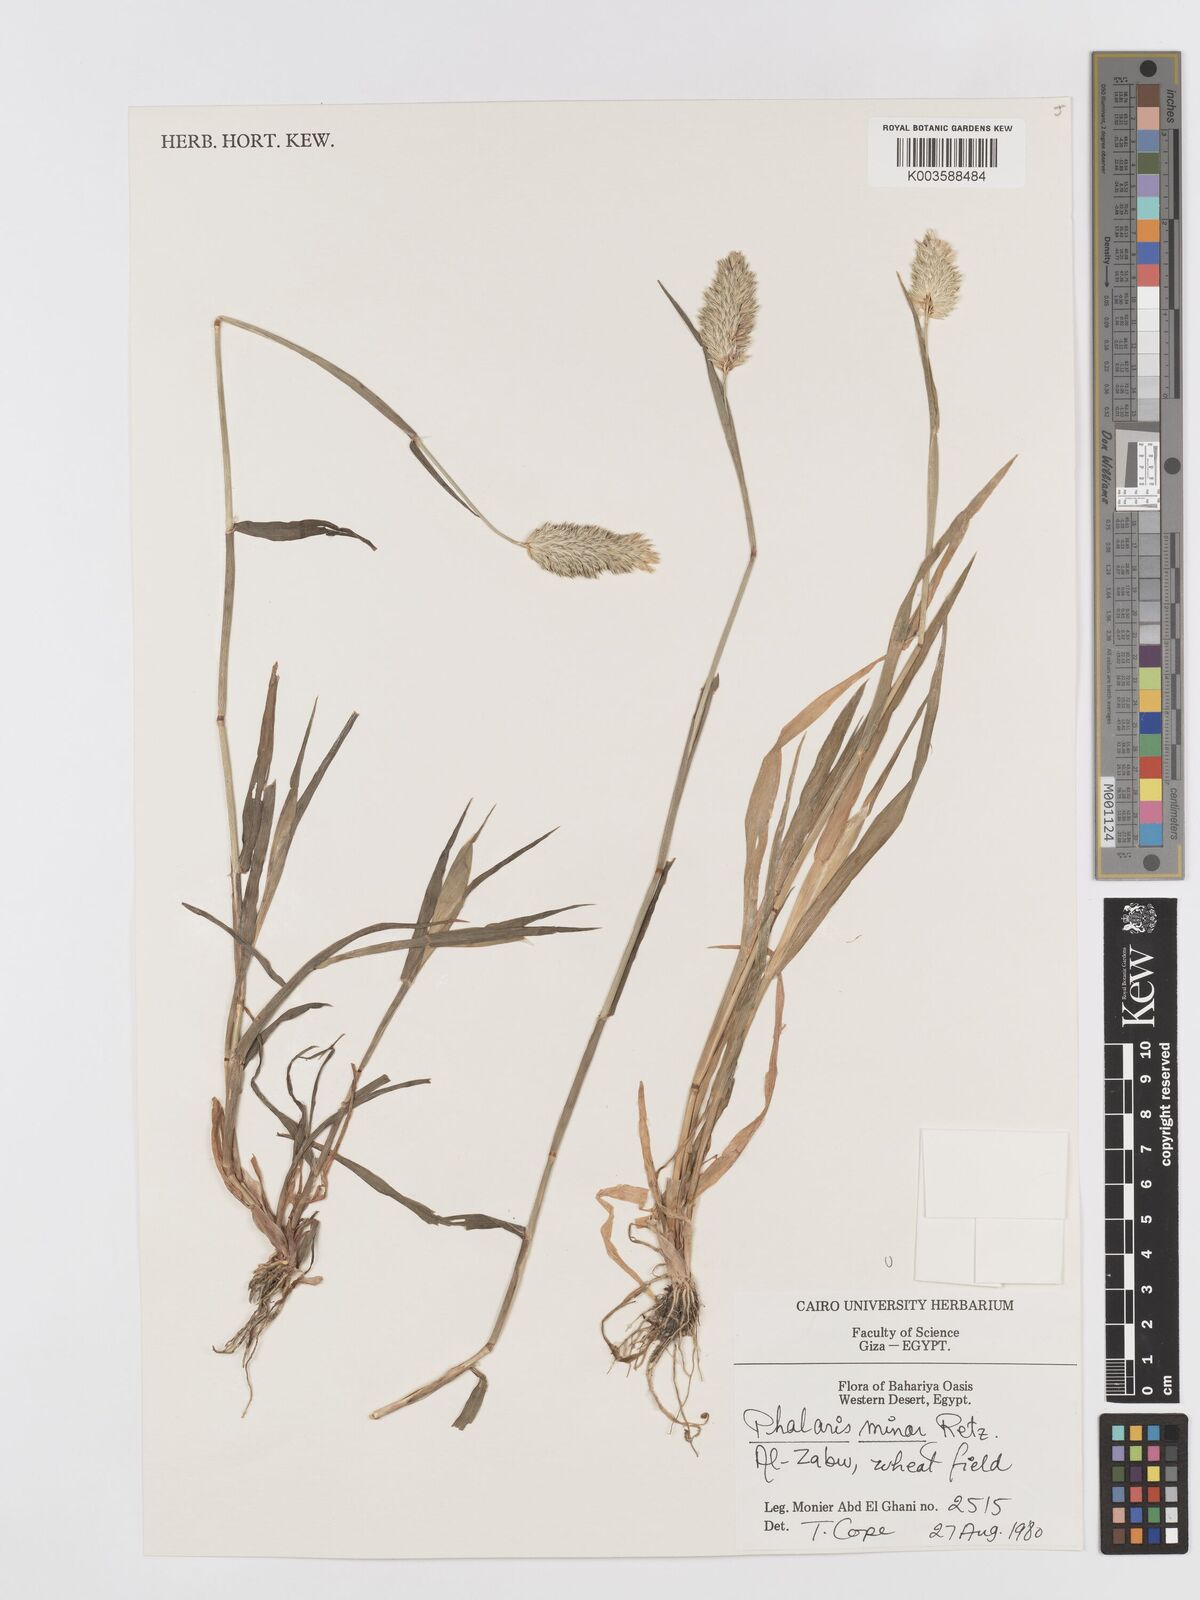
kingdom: Plantae
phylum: Tracheophyta
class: Liliopsida
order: Poales
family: Poaceae
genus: Phalaris
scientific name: Phalaris minor
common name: Littleseed canarygrass
